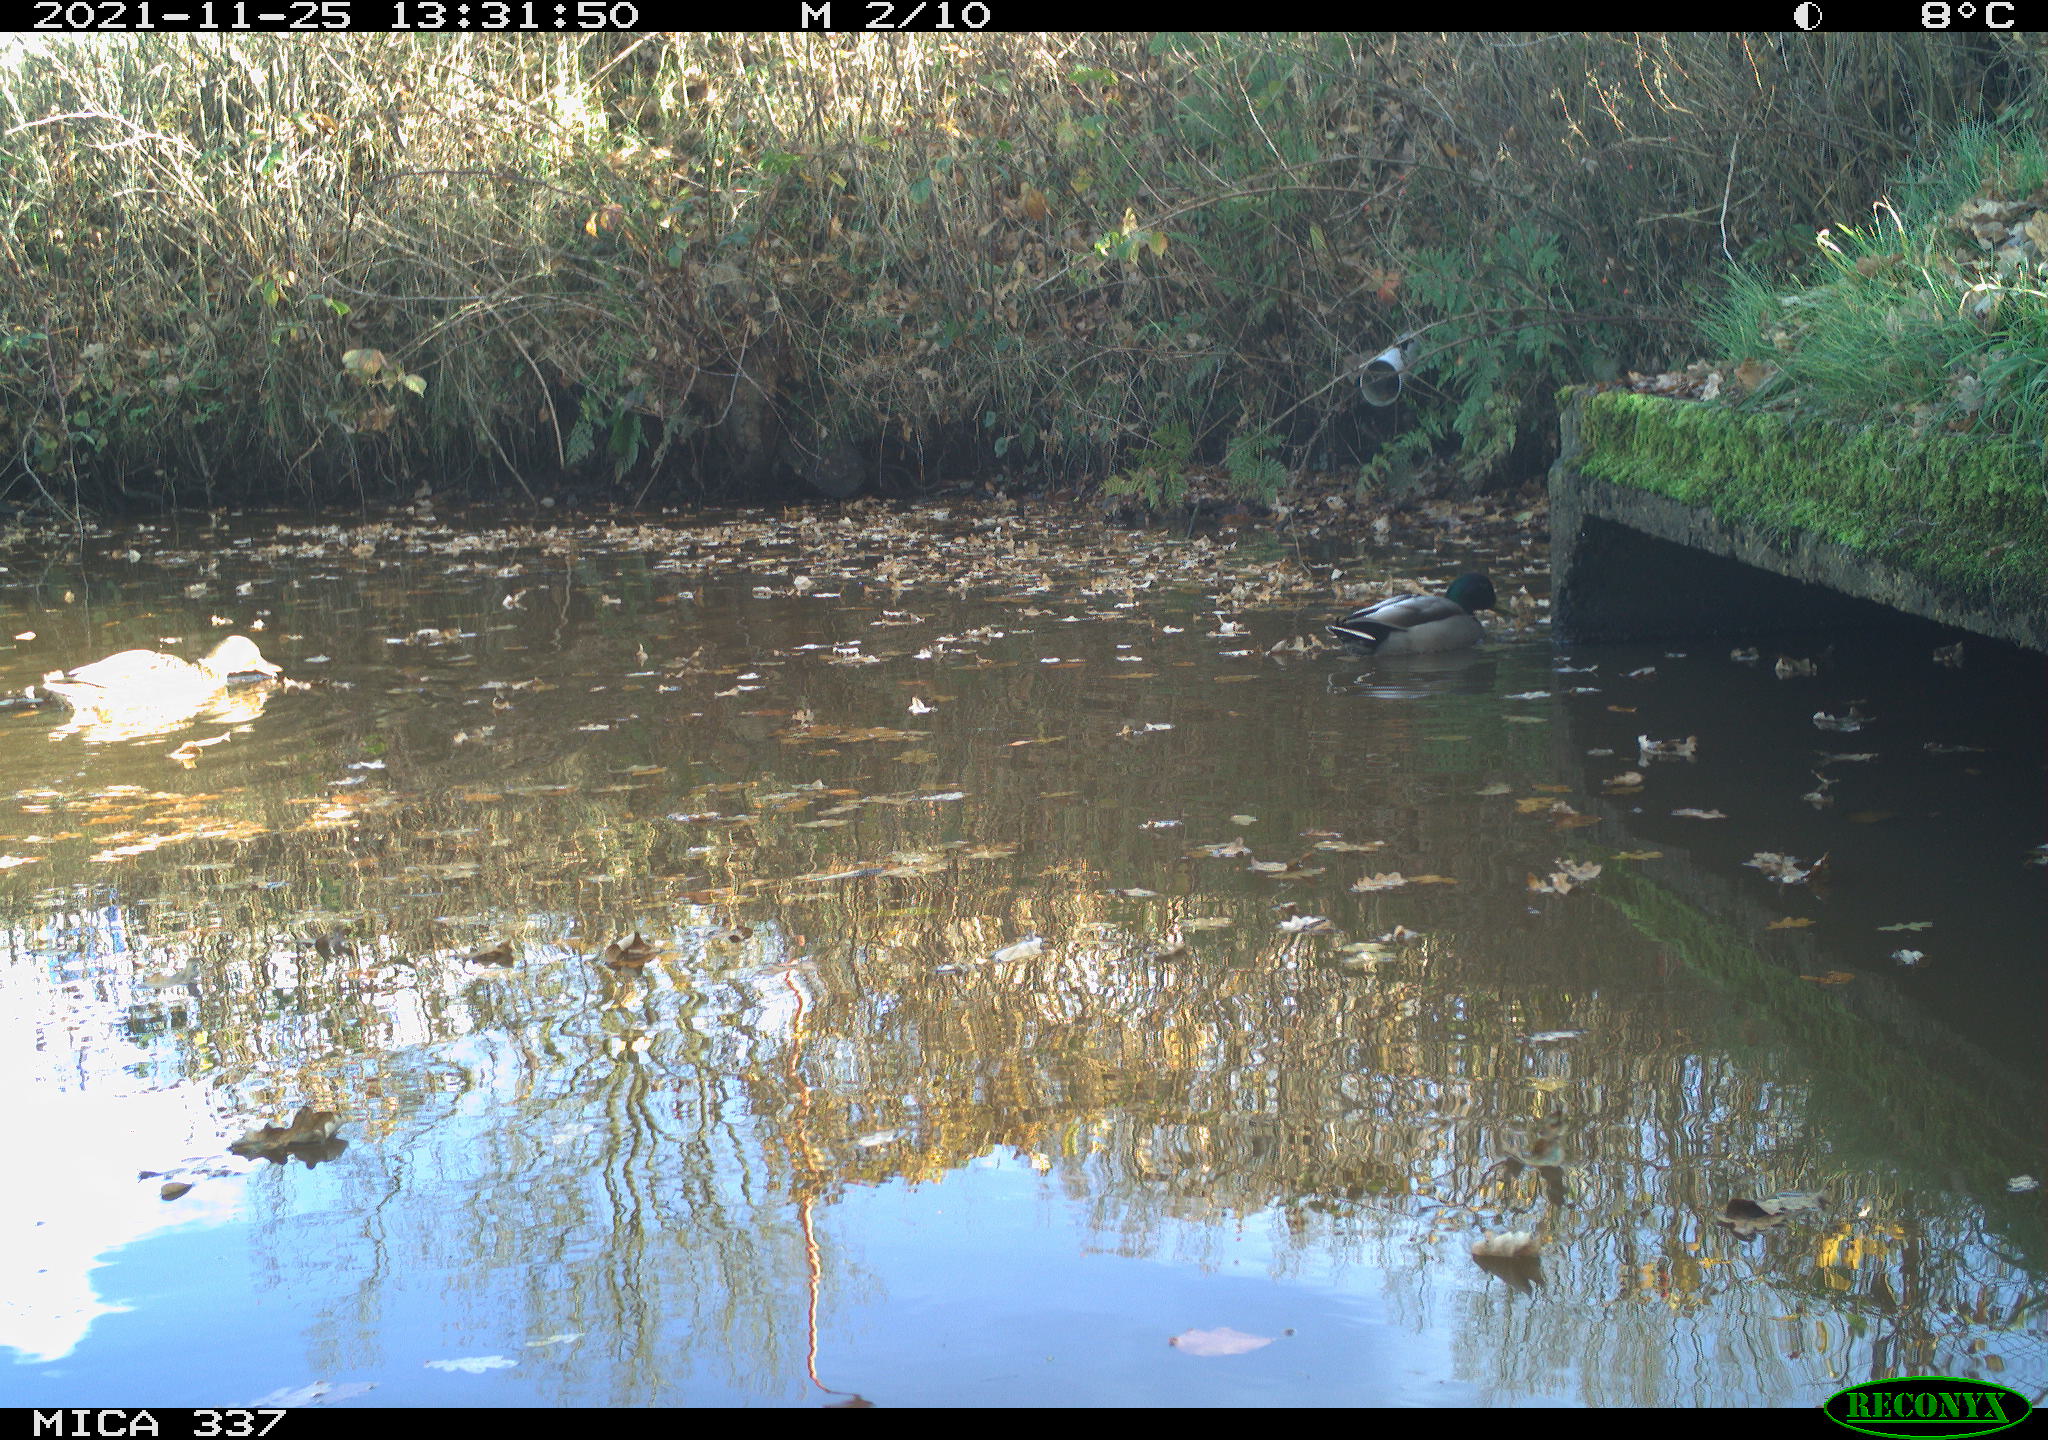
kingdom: Animalia
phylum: Chordata
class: Aves
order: Anseriformes
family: Anatidae
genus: Anas
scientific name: Anas platyrhynchos
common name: Mallard
